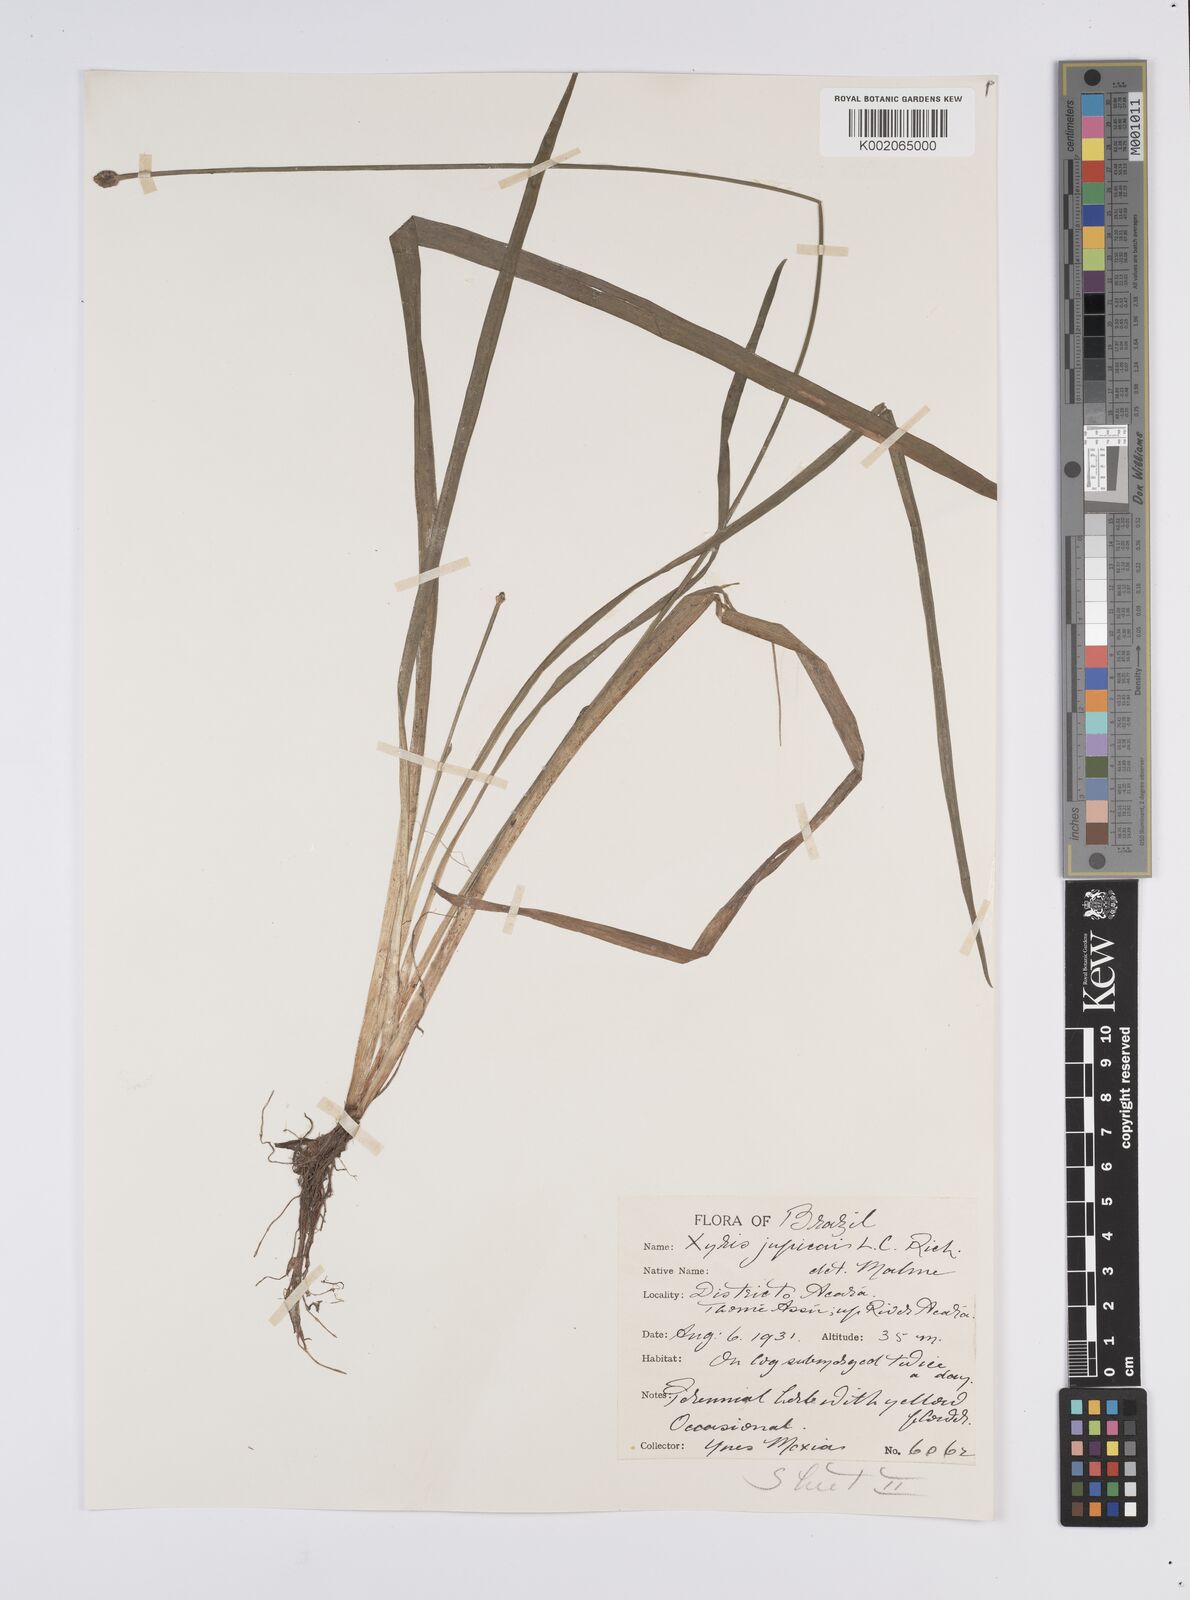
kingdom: Plantae
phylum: Tracheophyta
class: Liliopsida
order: Poales
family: Xyridaceae
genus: Xyris
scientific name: Xyris jupicai
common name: Richard's yelloweyed grass
